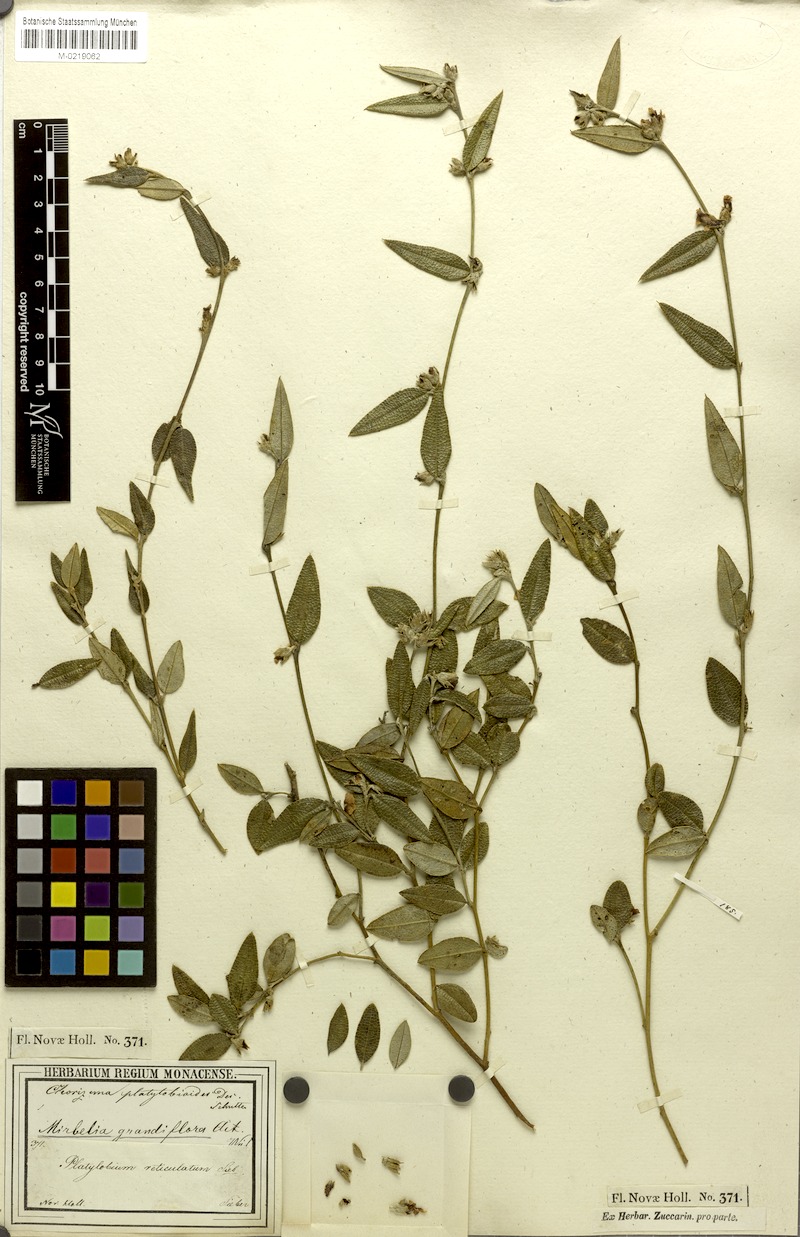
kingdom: Plantae
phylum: Tracheophyta
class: Magnoliopsida
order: Fabales
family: Fabaceae
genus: Mirbelia
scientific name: Mirbelia platylobioides
